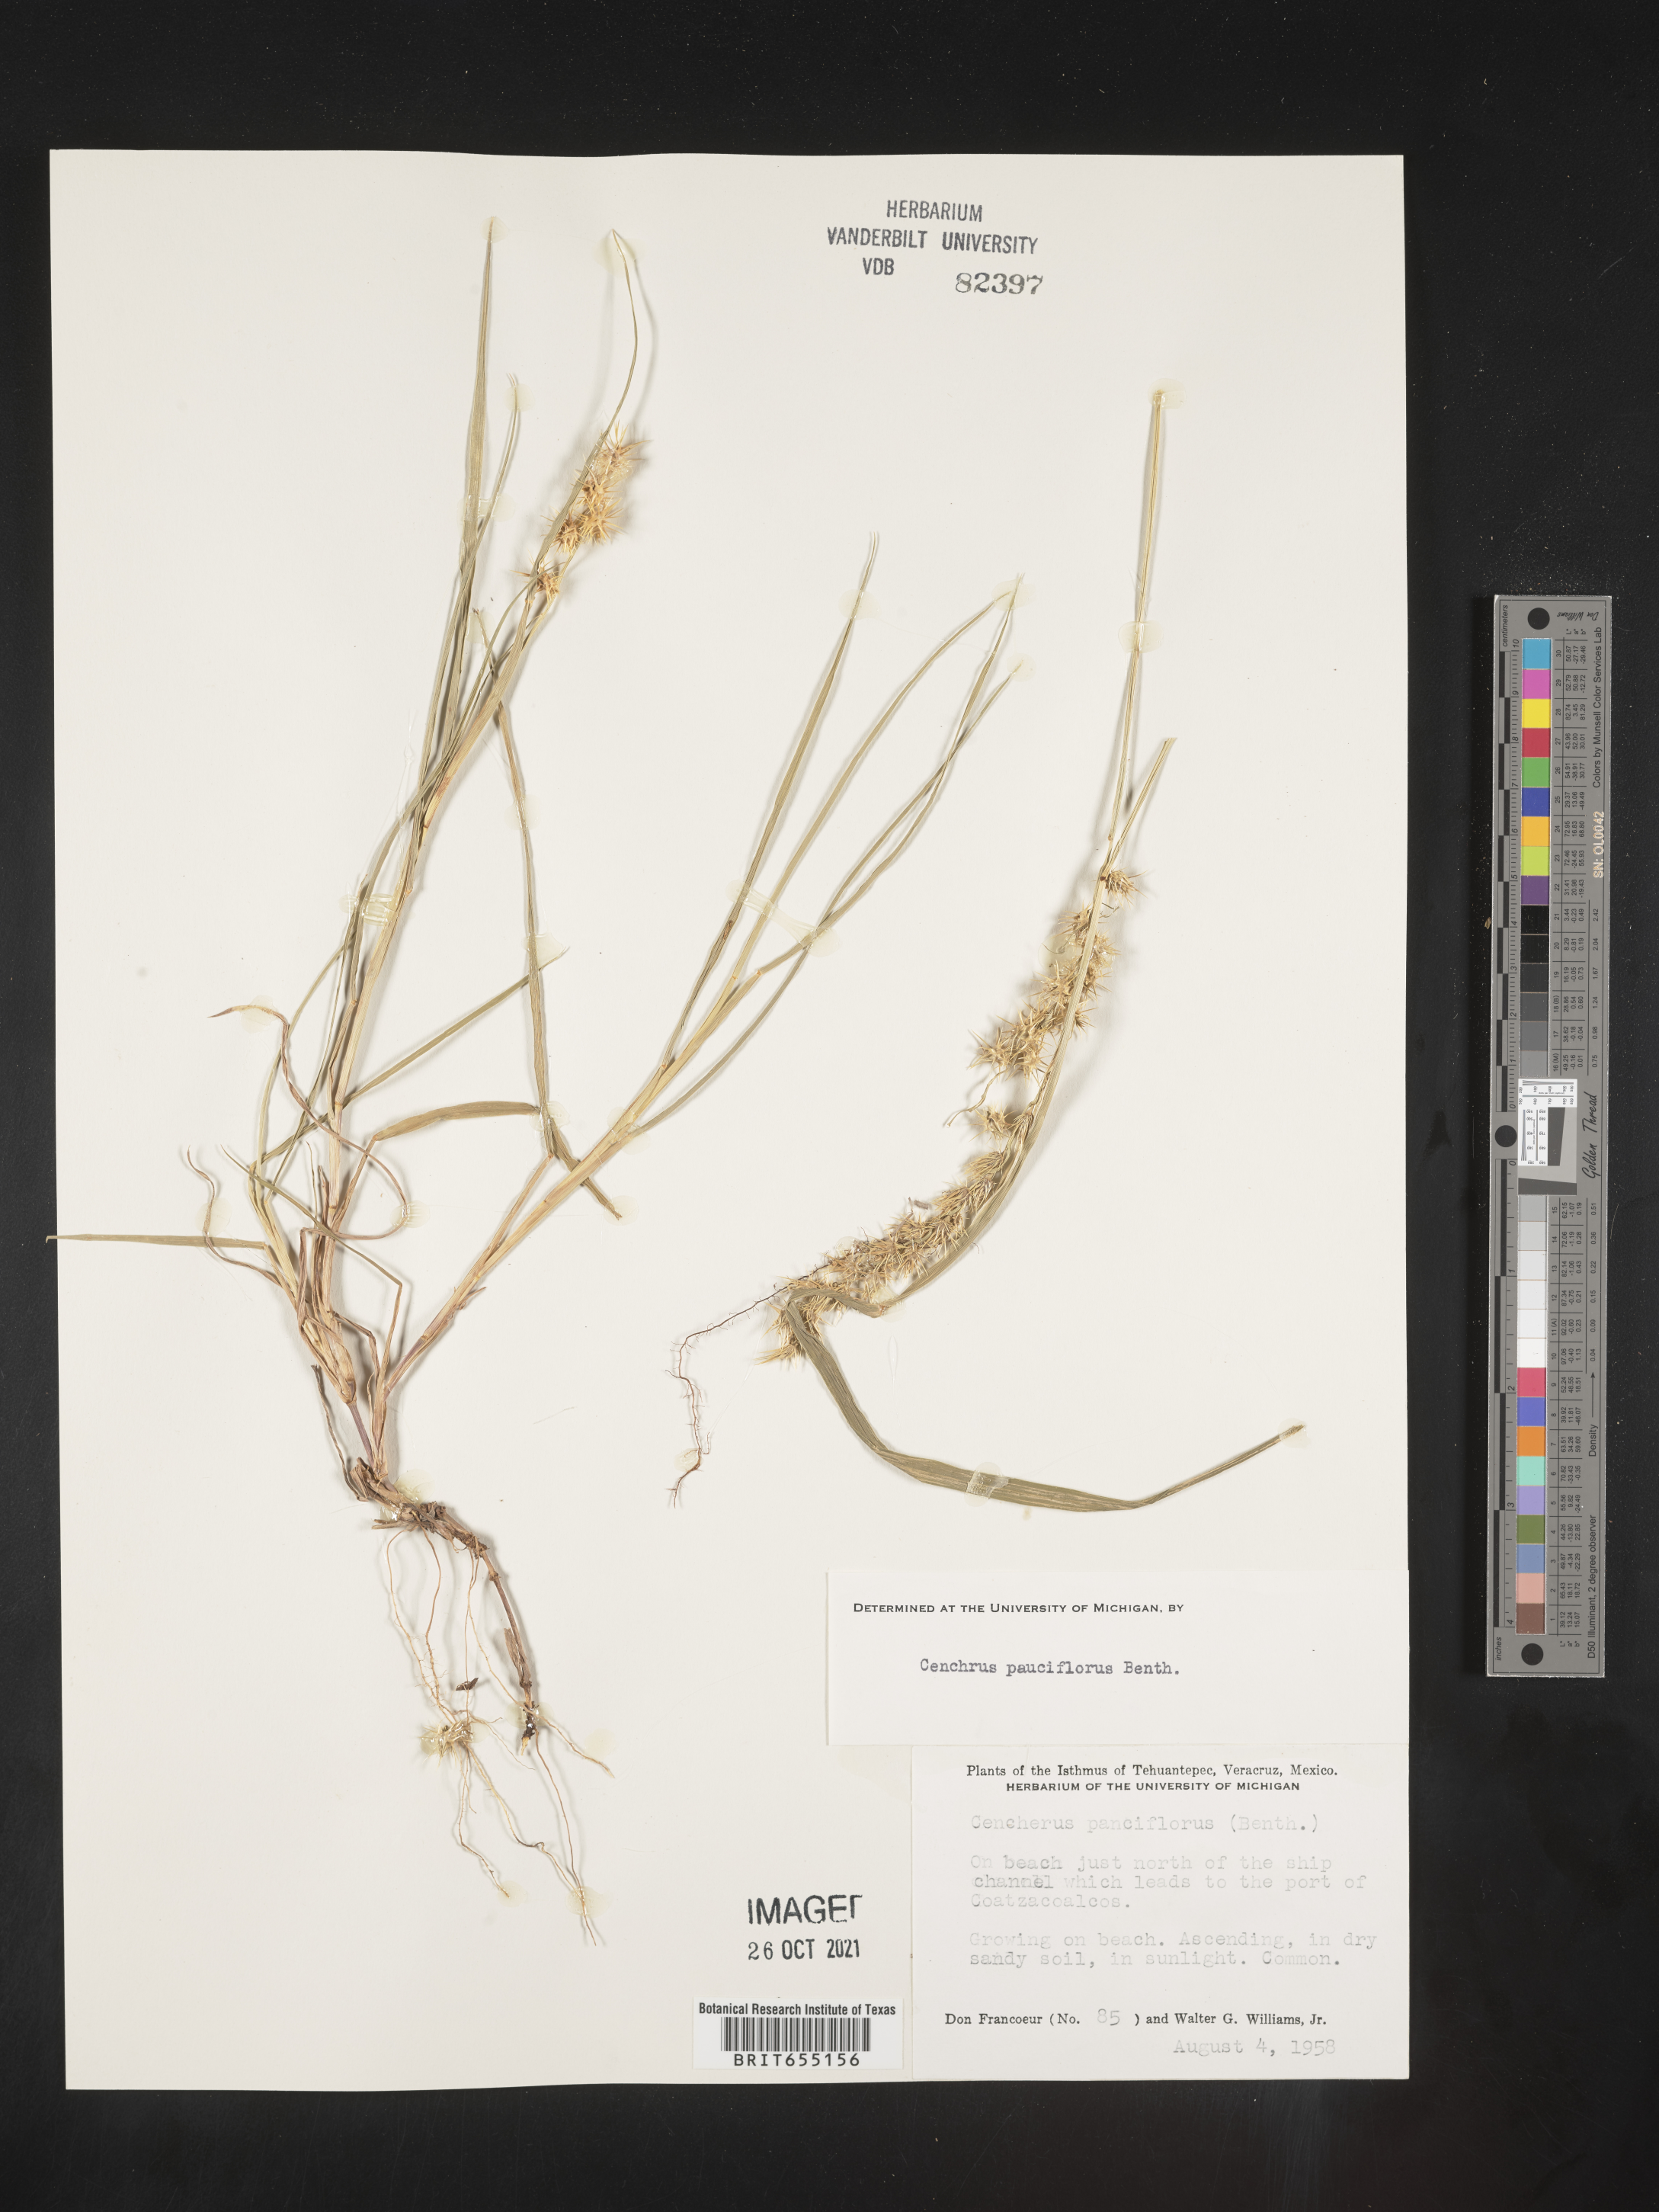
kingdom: Plantae
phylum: Tracheophyta
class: Liliopsida
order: Poales
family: Poaceae
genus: Cenchrus
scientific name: Cenchrus
